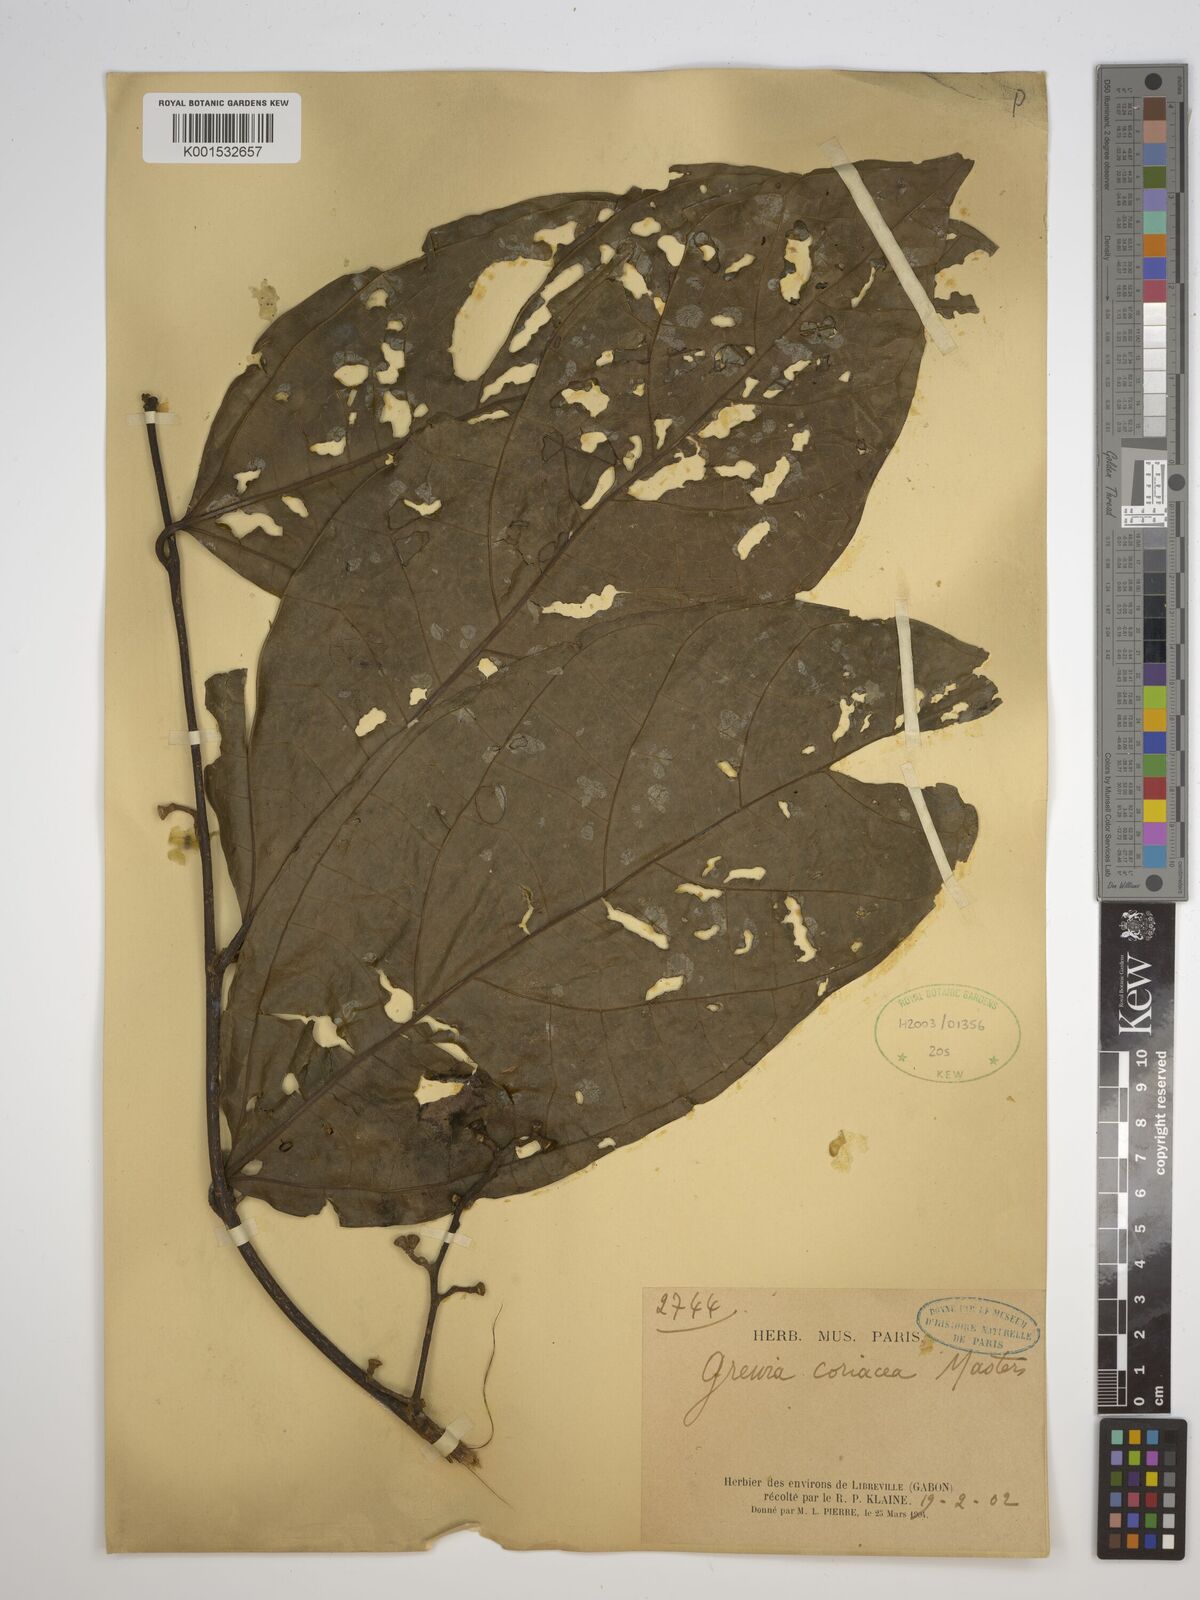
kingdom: Plantae
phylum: Tracheophyta
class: Magnoliopsida
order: Malvales
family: Malvaceae
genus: Microcos
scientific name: Microcos coriacea
